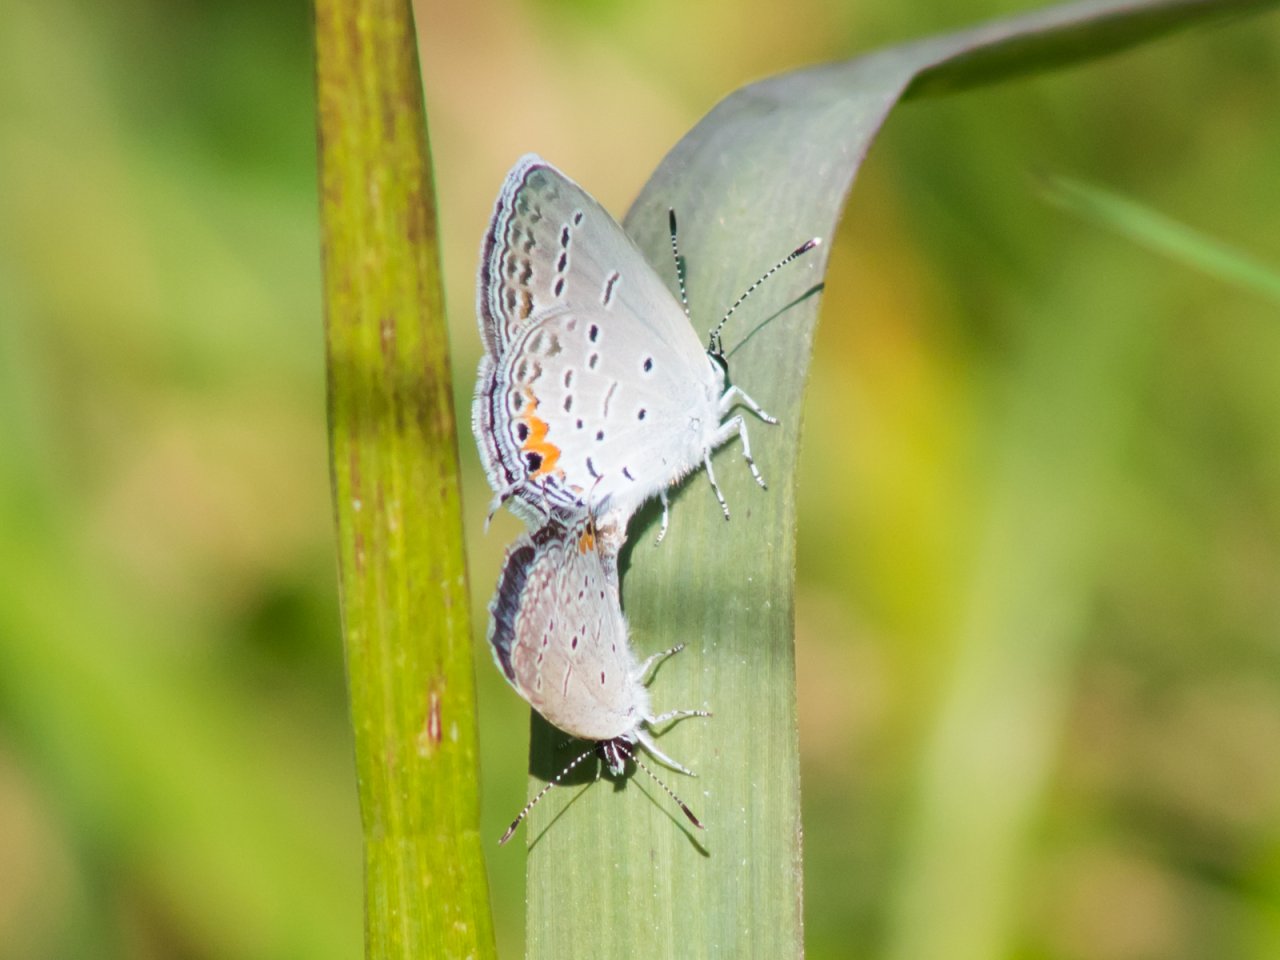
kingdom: Animalia
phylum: Arthropoda
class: Insecta
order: Lepidoptera
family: Lycaenidae
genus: Elkalyce
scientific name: Elkalyce comyntas
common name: Eastern Tailed-Blue
